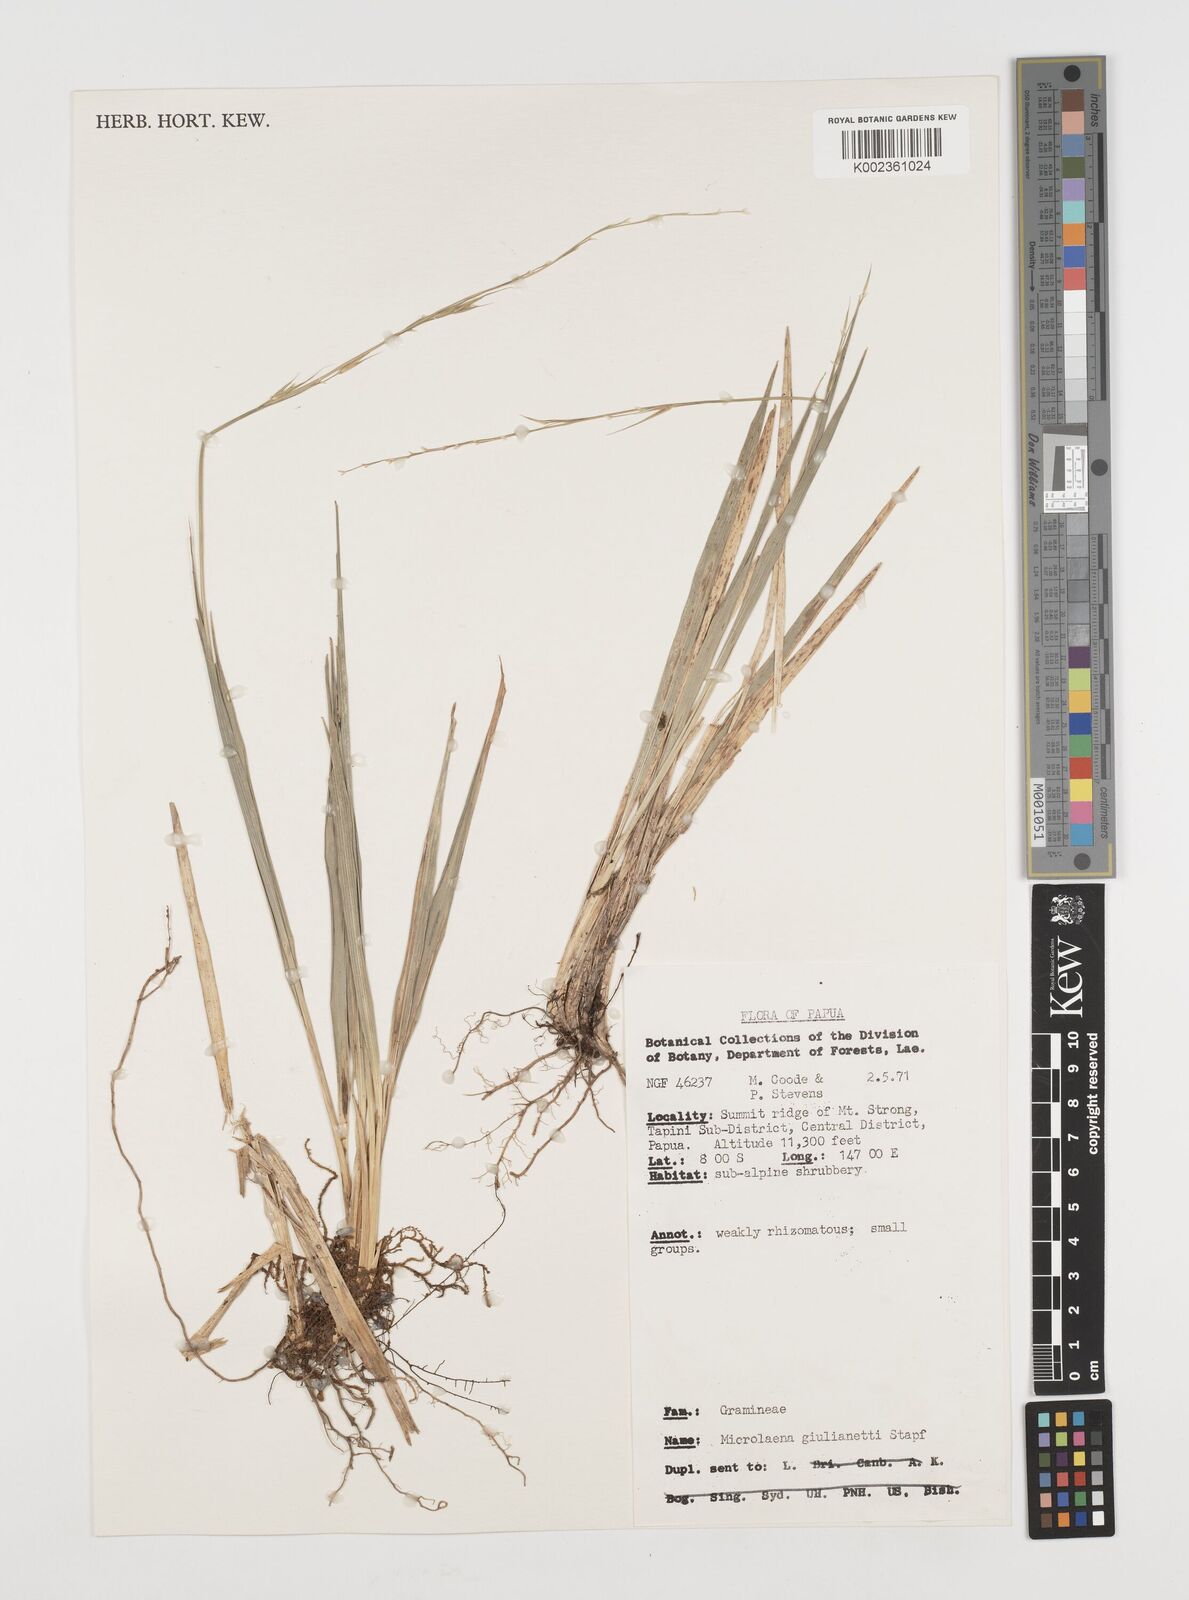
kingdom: Plantae
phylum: Tracheophyta
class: Liliopsida
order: Poales
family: Poaceae
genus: Ehrharta
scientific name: Ehrharta diplax
